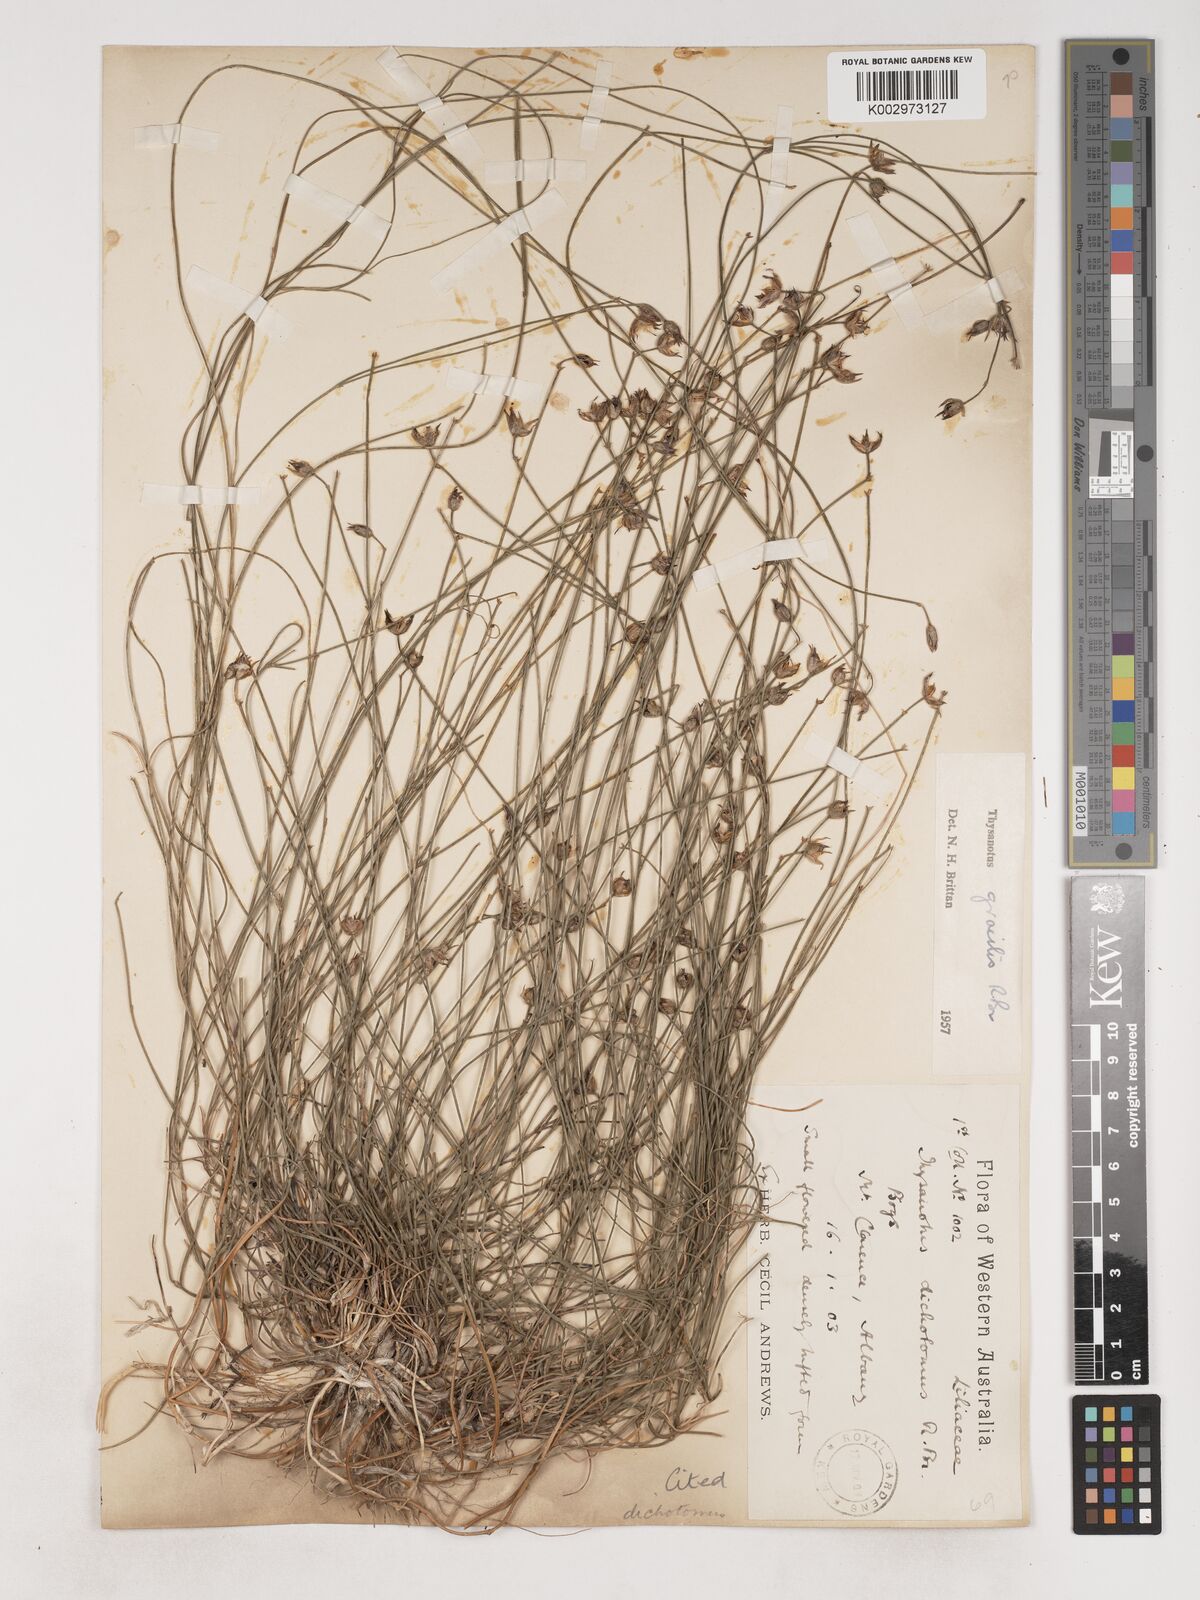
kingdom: Plantae
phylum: Tracheophyta
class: Liliopsida
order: Asparagales
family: Asparagaceae
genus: Thysanotus
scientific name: Thysanotus gracilis
